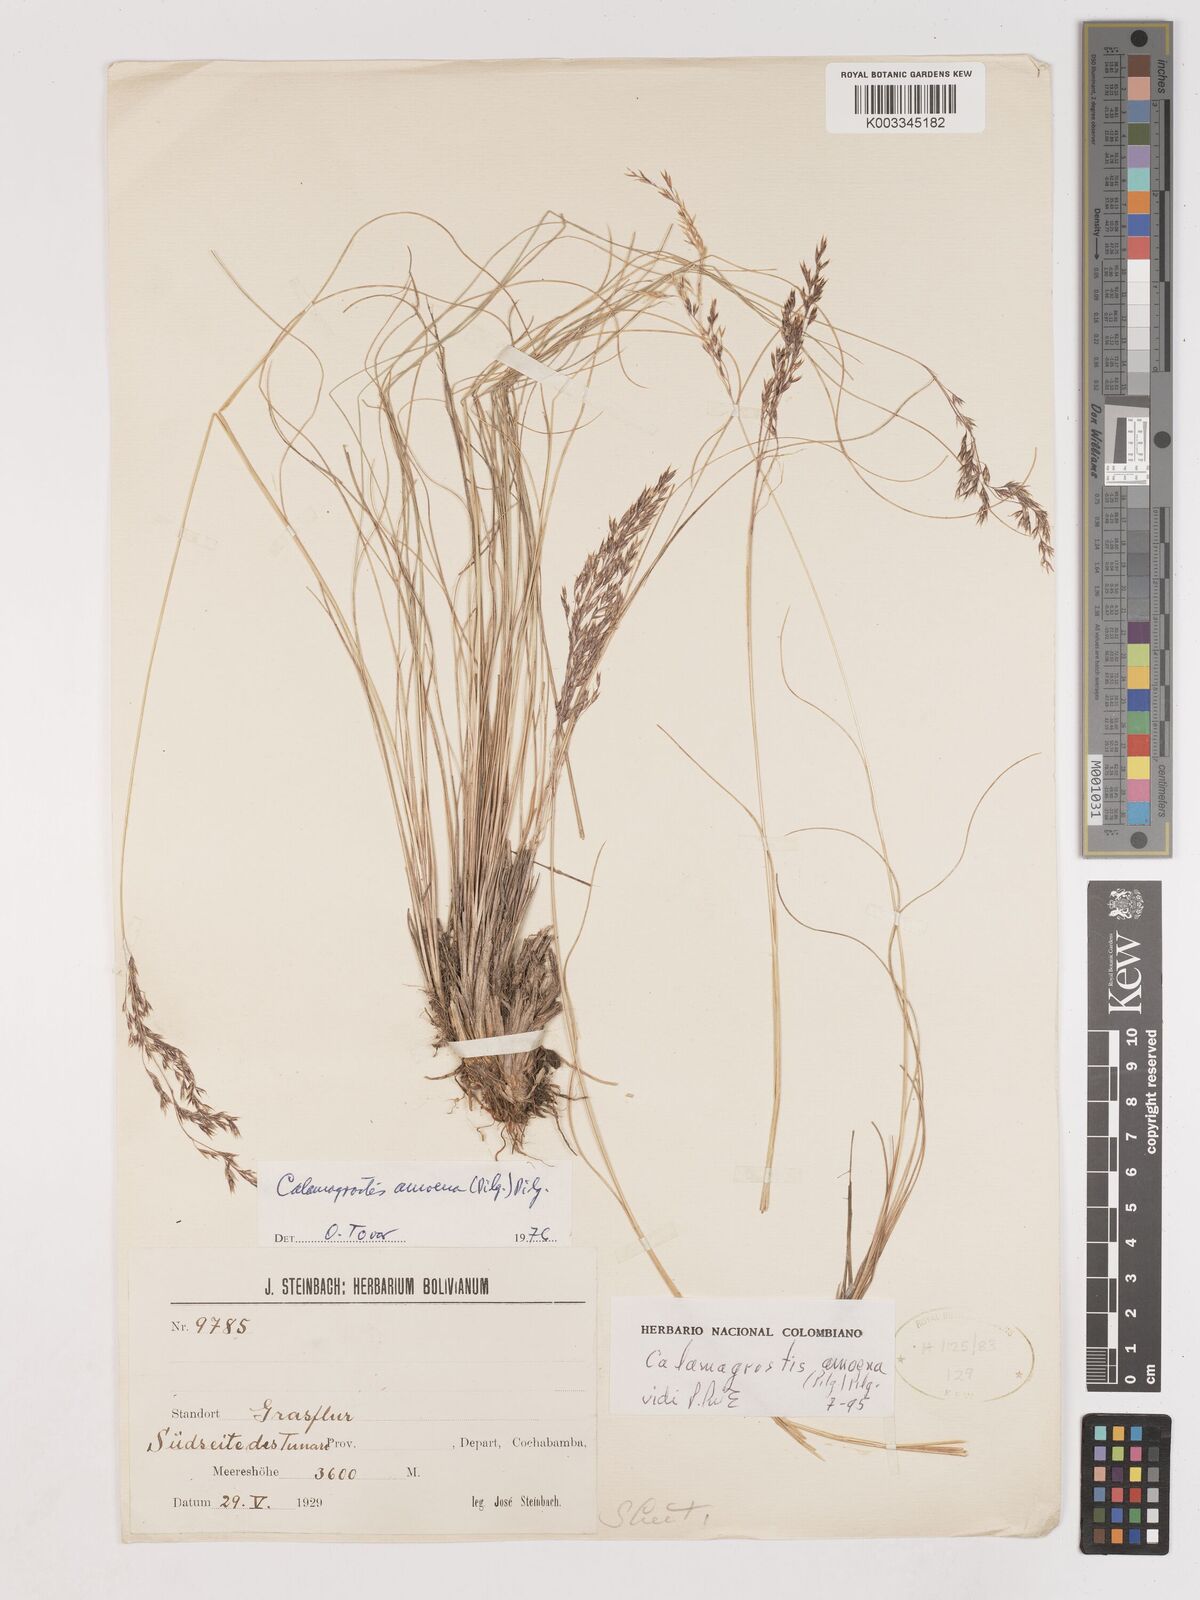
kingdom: Plantae
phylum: Tracheophyta
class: Liliopsida
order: Poales
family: Poaceae
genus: Calamagrostis
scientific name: Calamagrostis
